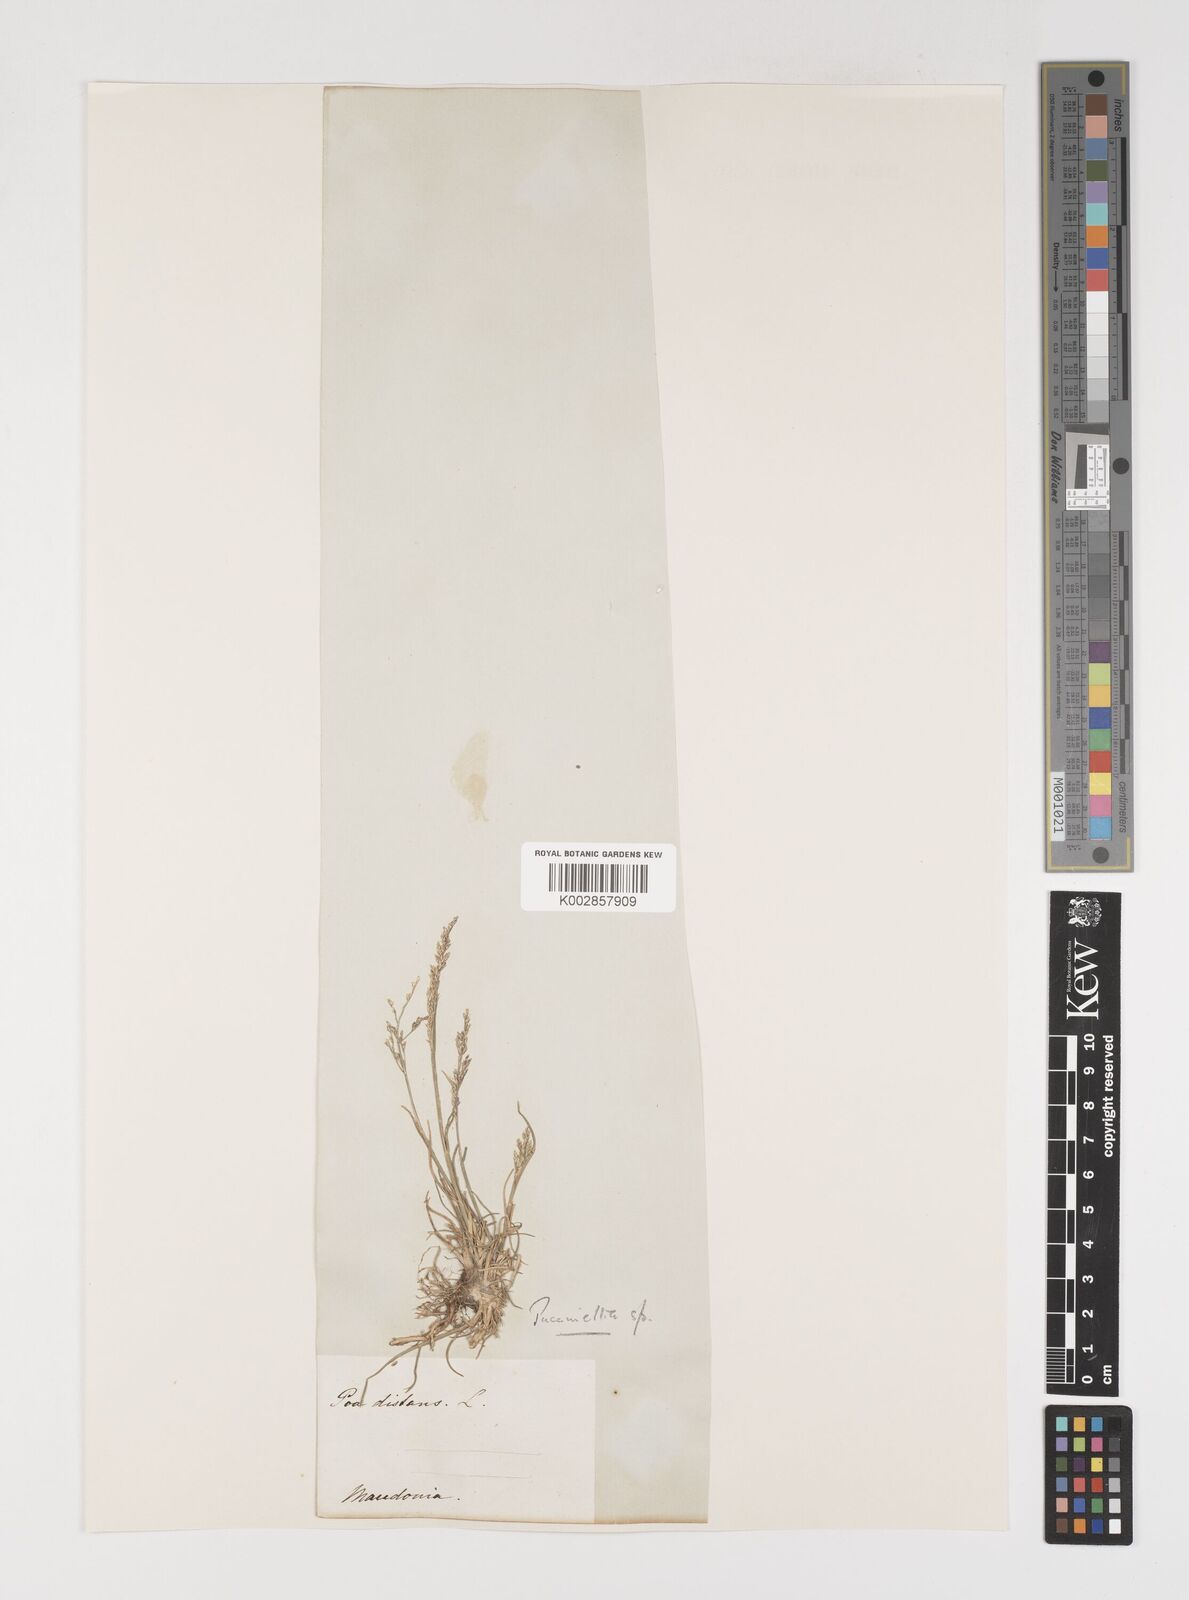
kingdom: Plantae
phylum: Tracheophyta
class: Liliopsida
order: Poales
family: Poaceae
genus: Puccinellia
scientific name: Puccinellia
